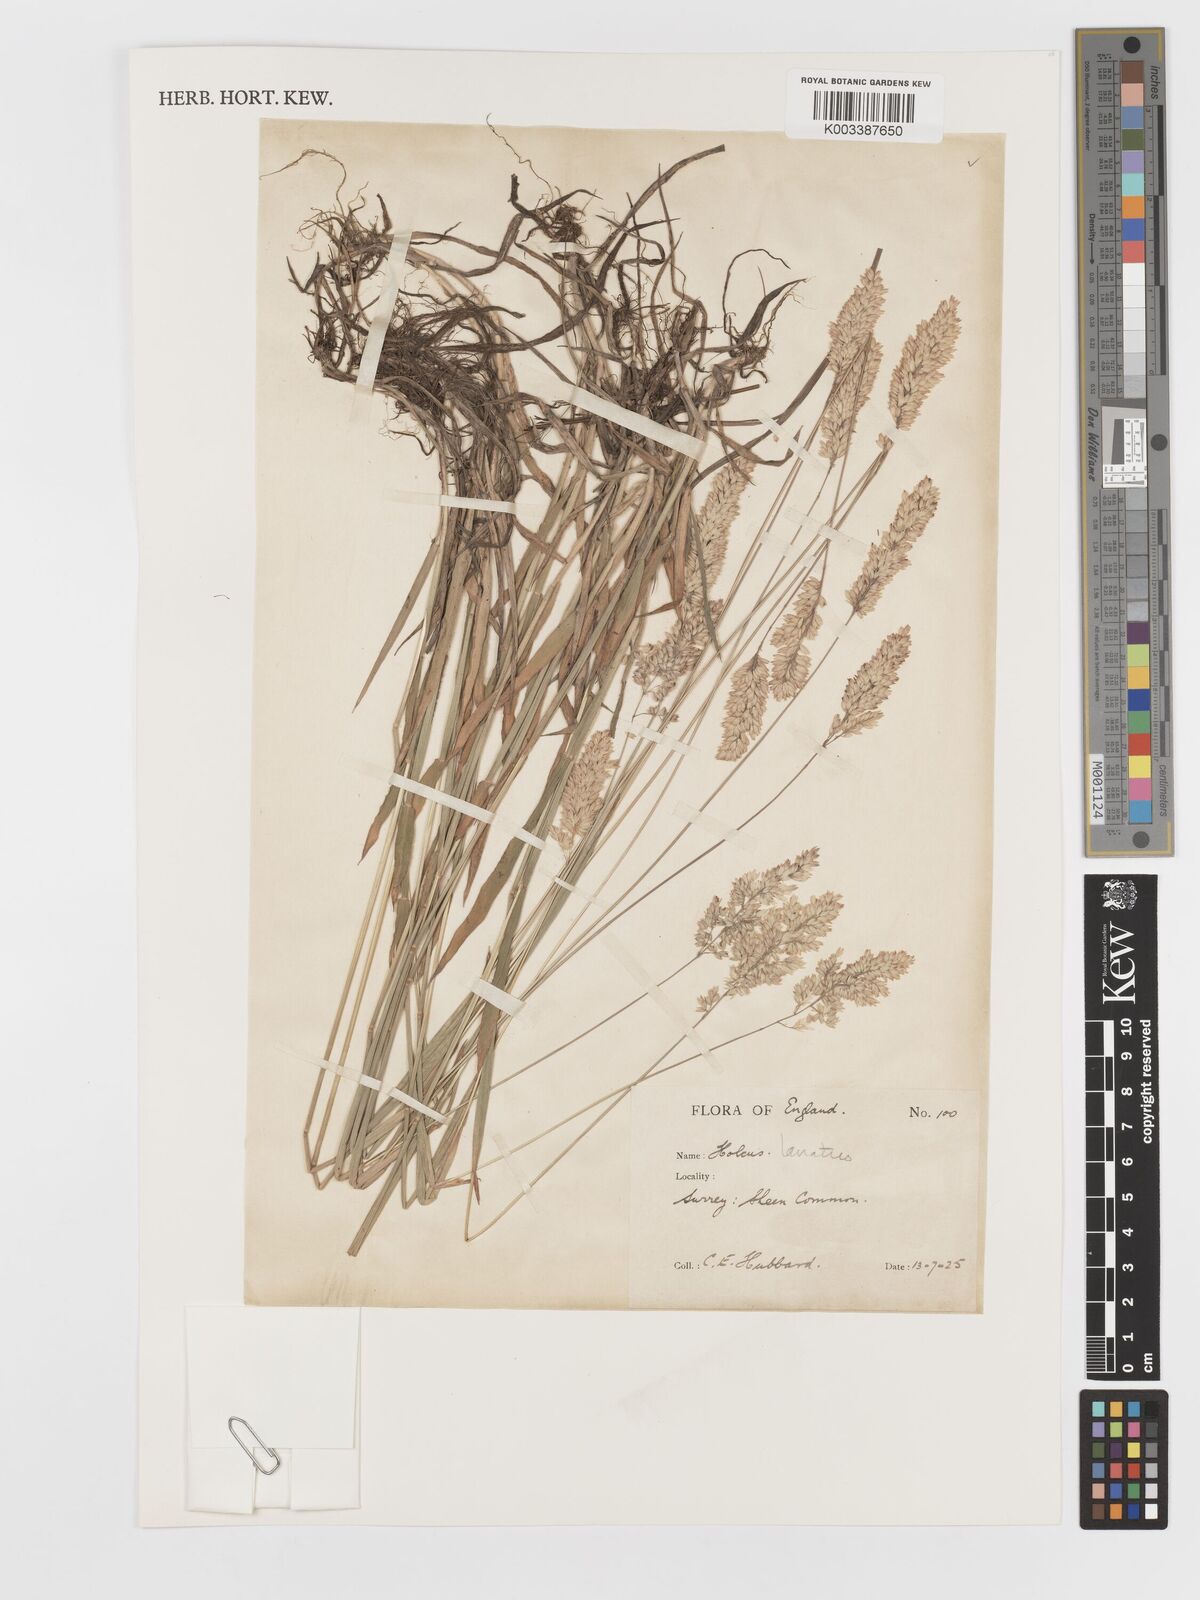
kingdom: Plantae
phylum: Tracheophyta
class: Liliopsida
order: Poales
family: Poaceae
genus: Holcus
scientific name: Holcus lanatus
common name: Yorkshire-fog
